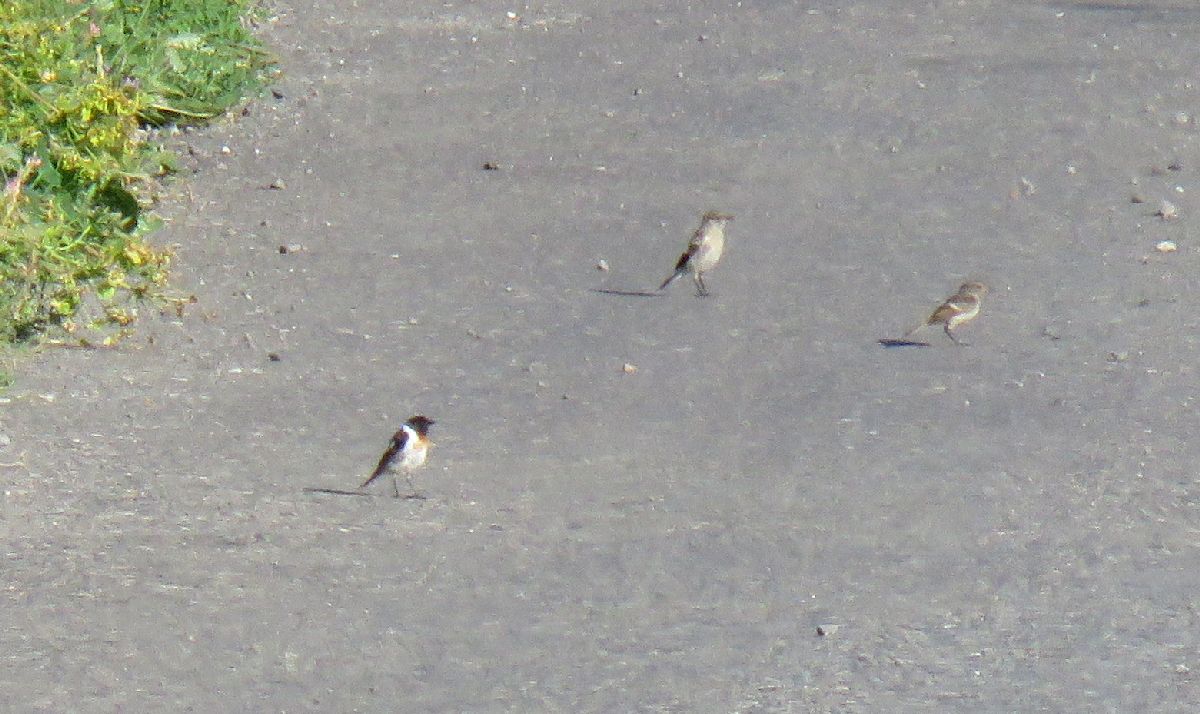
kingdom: Animalia
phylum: Chordata
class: Aves
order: Passeriformes
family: Muscicapidae
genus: Saxicola
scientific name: Saxicola maurus
